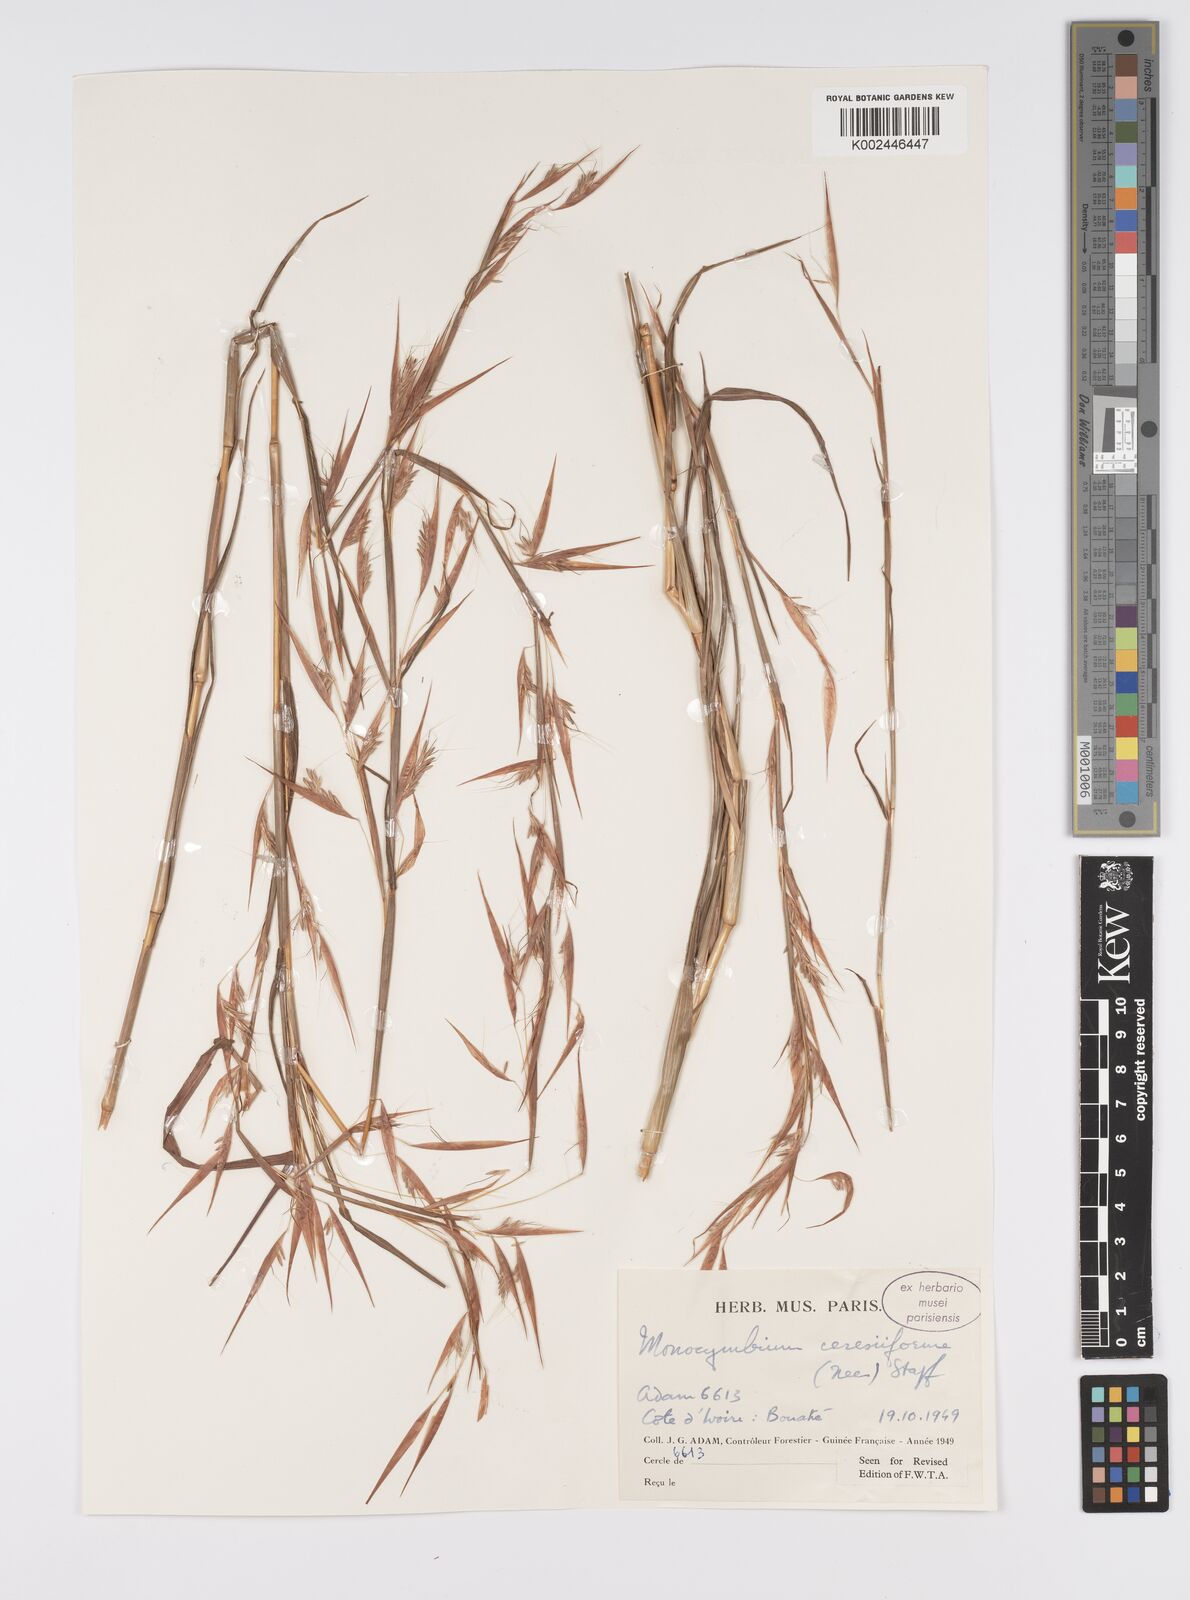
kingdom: Plantae
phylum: Tracheophyta
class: Liliopsida
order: Poales
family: Poaceae
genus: Monocymbium
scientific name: Monocymbium ceresiiforme
